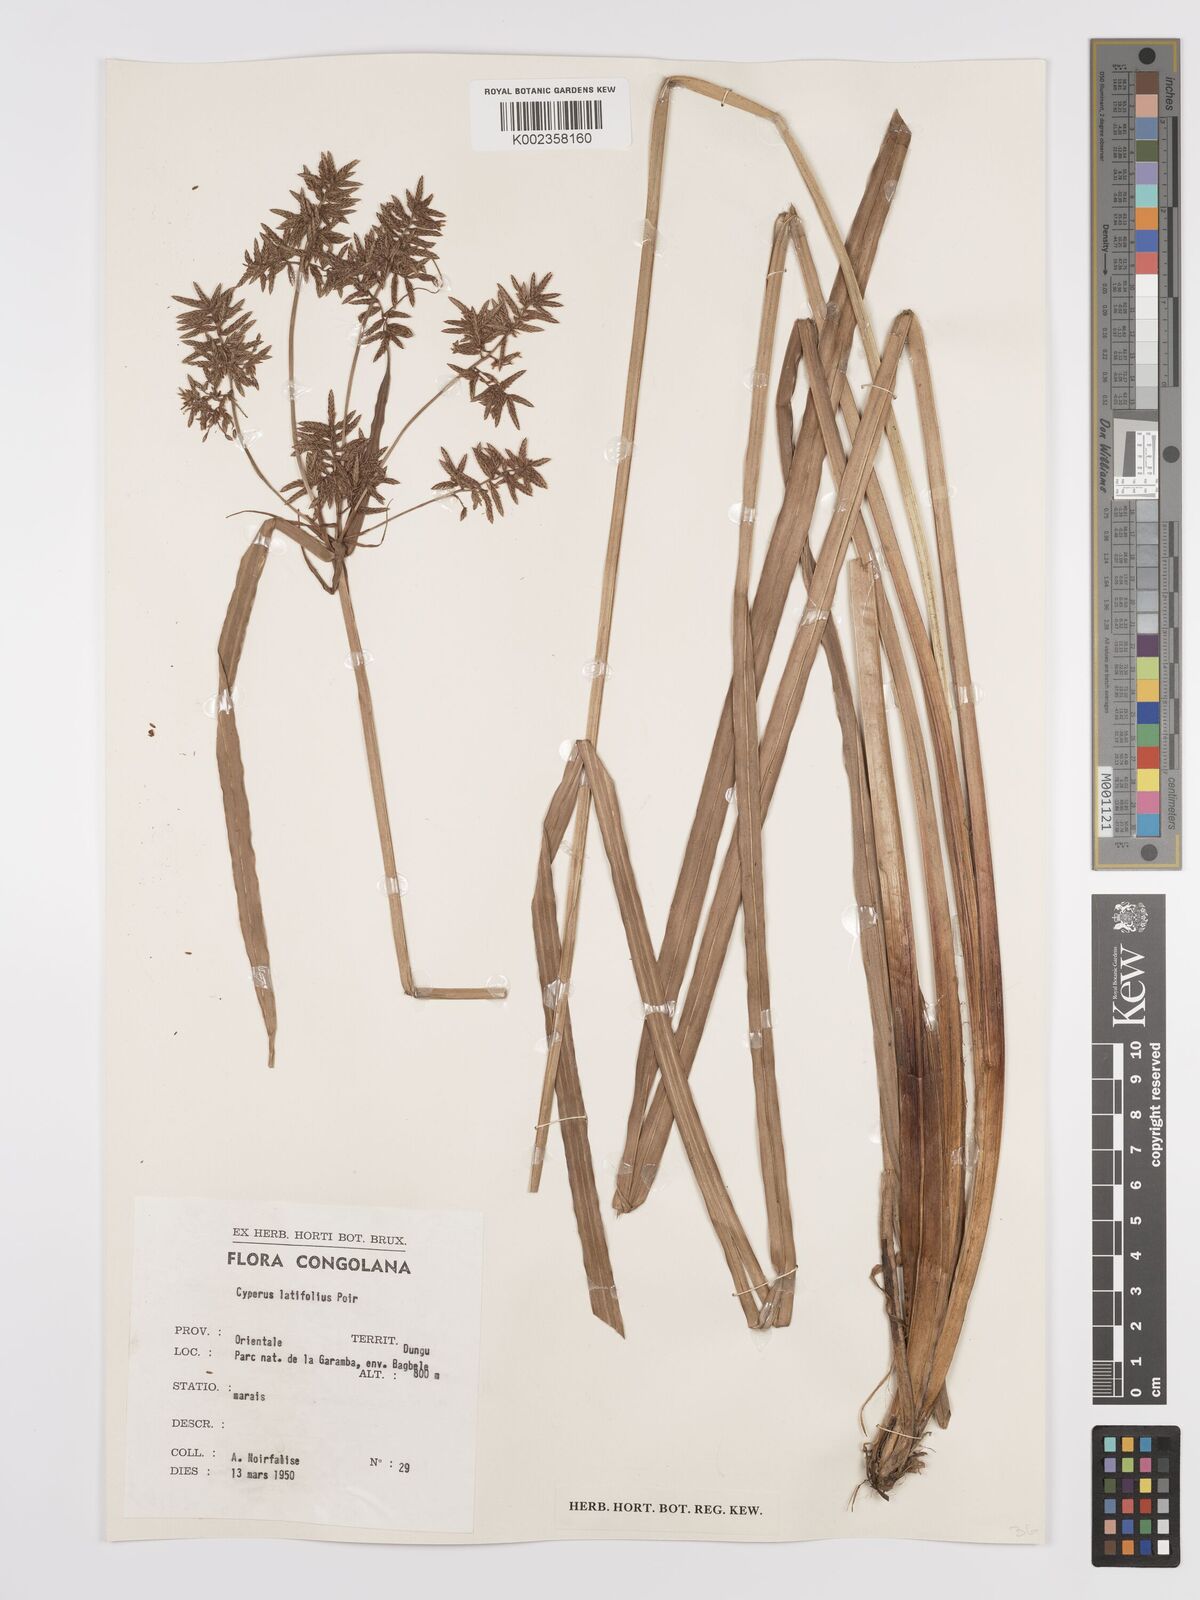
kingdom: Plantae
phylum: Tracheophyta
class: Liliopsida
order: Poales
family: Cyperaceae
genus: Cyperus
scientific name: Cyperus latifolius
